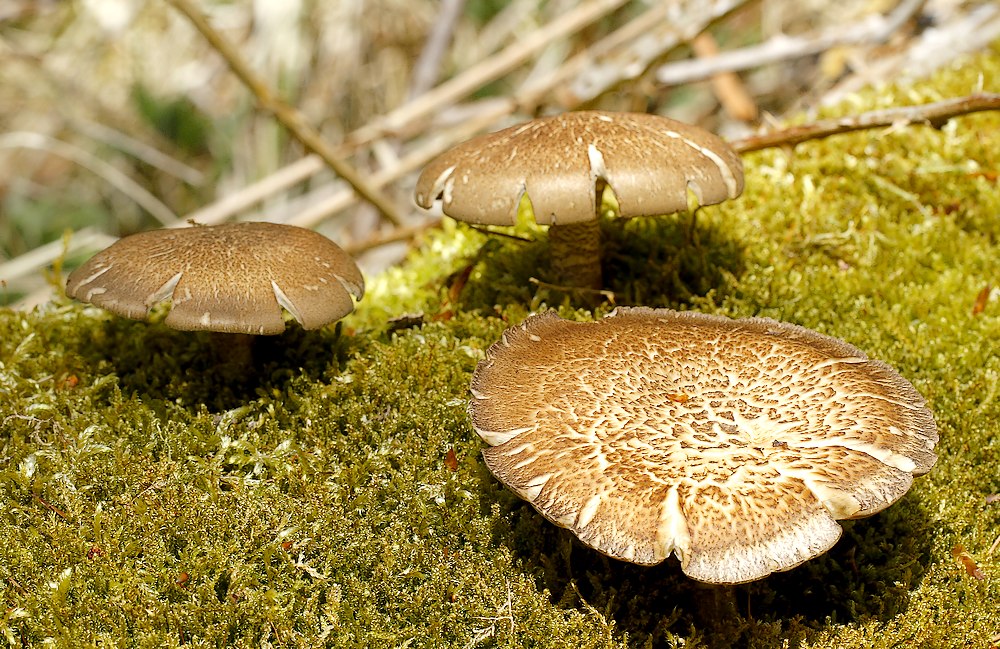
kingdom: Fungi
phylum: Basidiomycota
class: Agaricomycetes
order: Polyporales
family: Polyporaceae
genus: Polyporus
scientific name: Polyporus tuberaster
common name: knoldet stilkporesvamp
